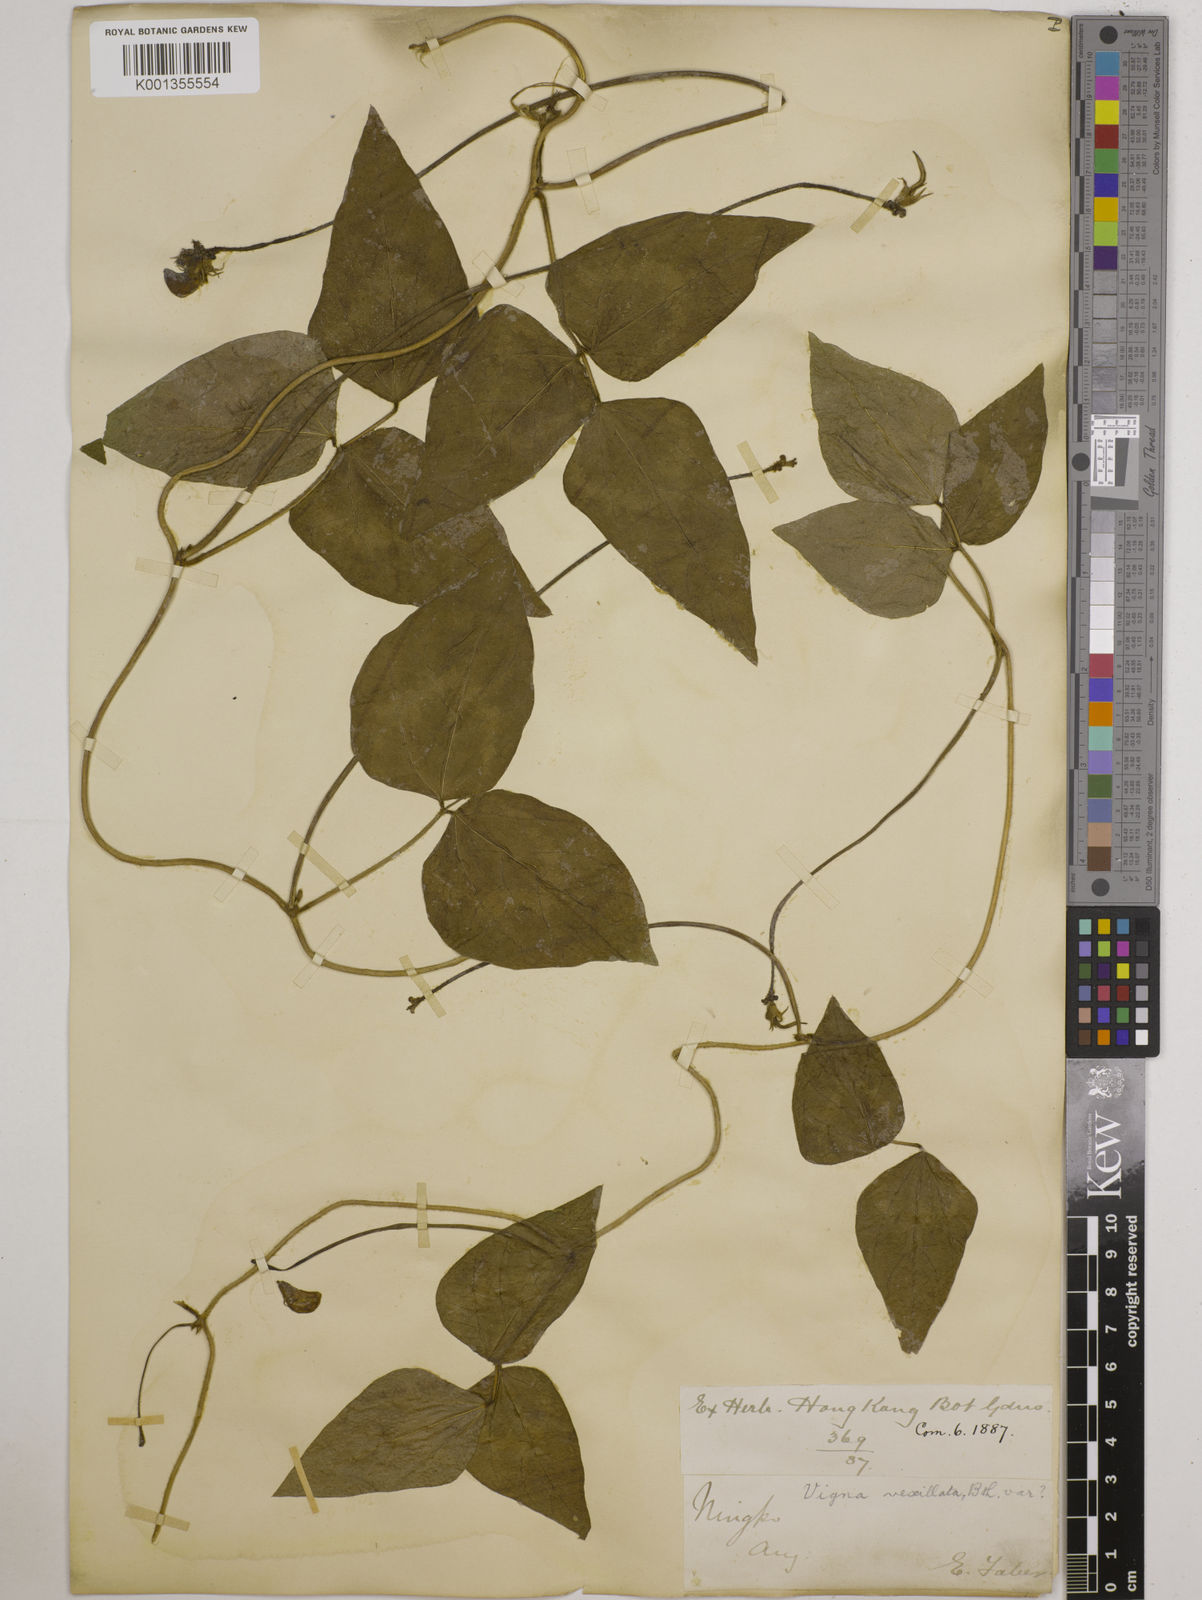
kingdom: Plantae
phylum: Tracheophyta
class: Magnoliopsida
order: Fabales
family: Fabaceae
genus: Vigna
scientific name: Vigna vexillata
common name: Zombi pea
